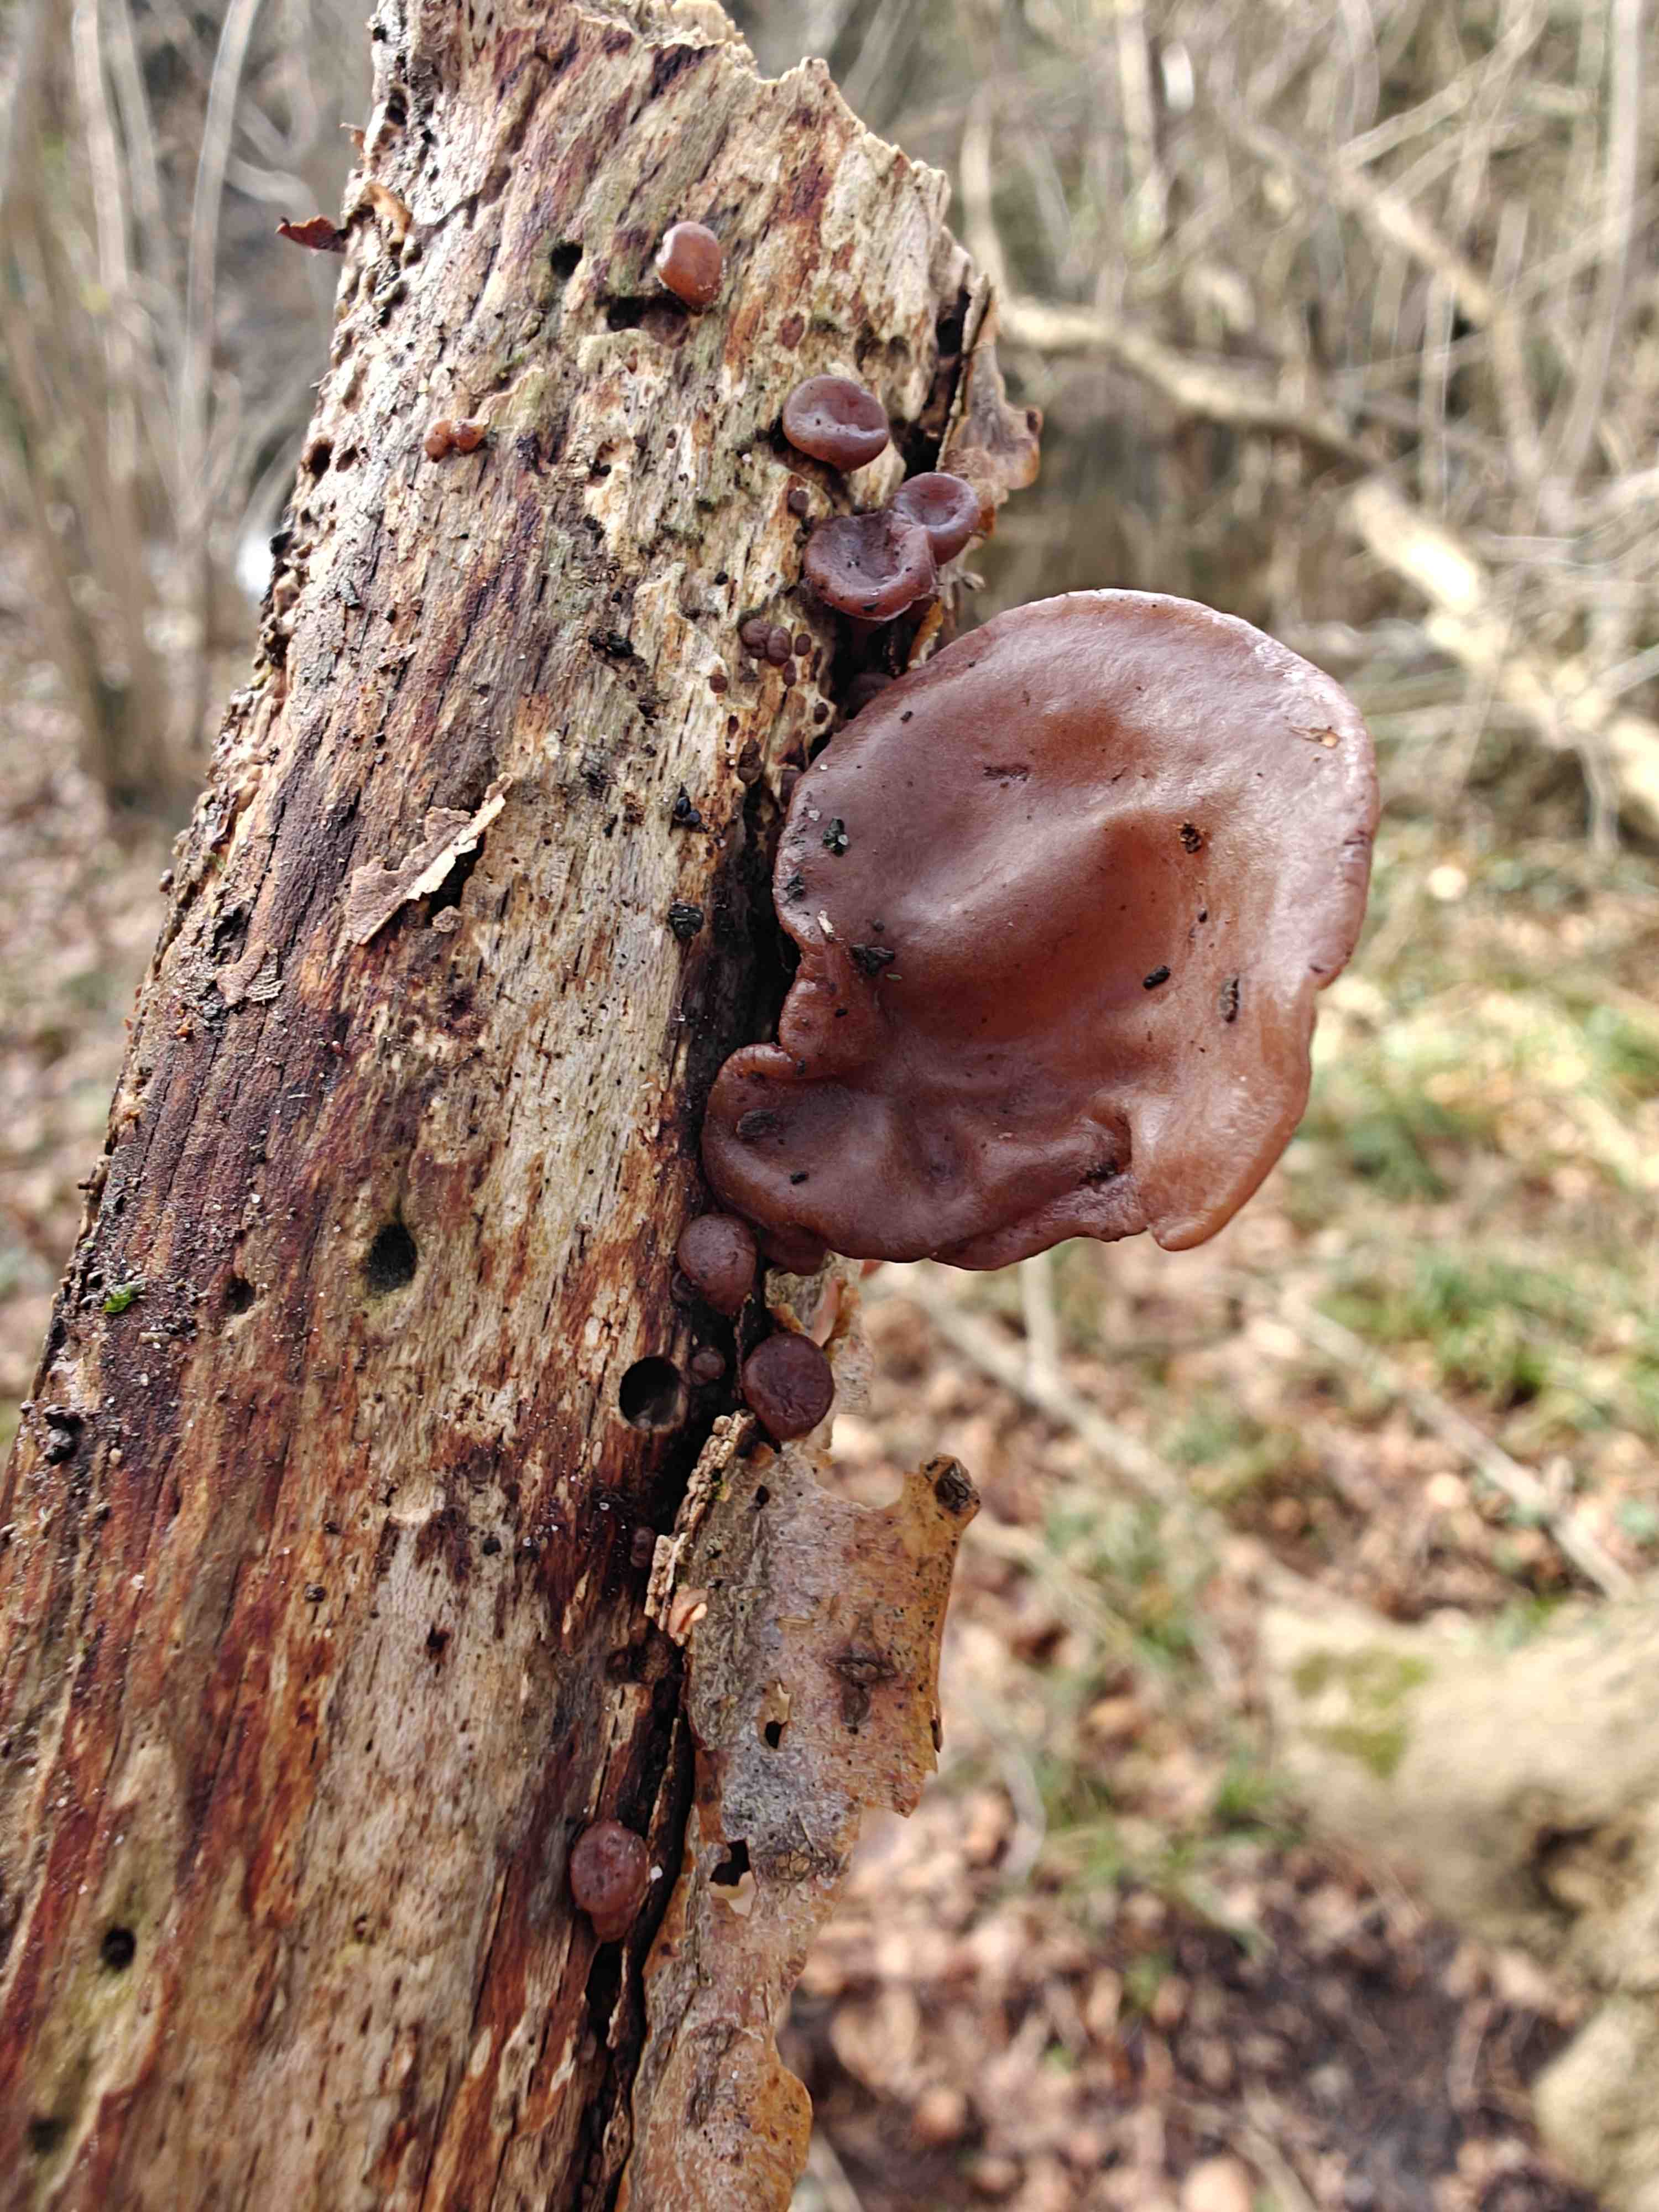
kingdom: Fungi
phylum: Basidiomycota
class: Agaricomycetes
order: Auriculariales
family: Auriculariaceae
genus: Auricularia
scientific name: Auricularia auricula-judae
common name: almindelig judasøre
